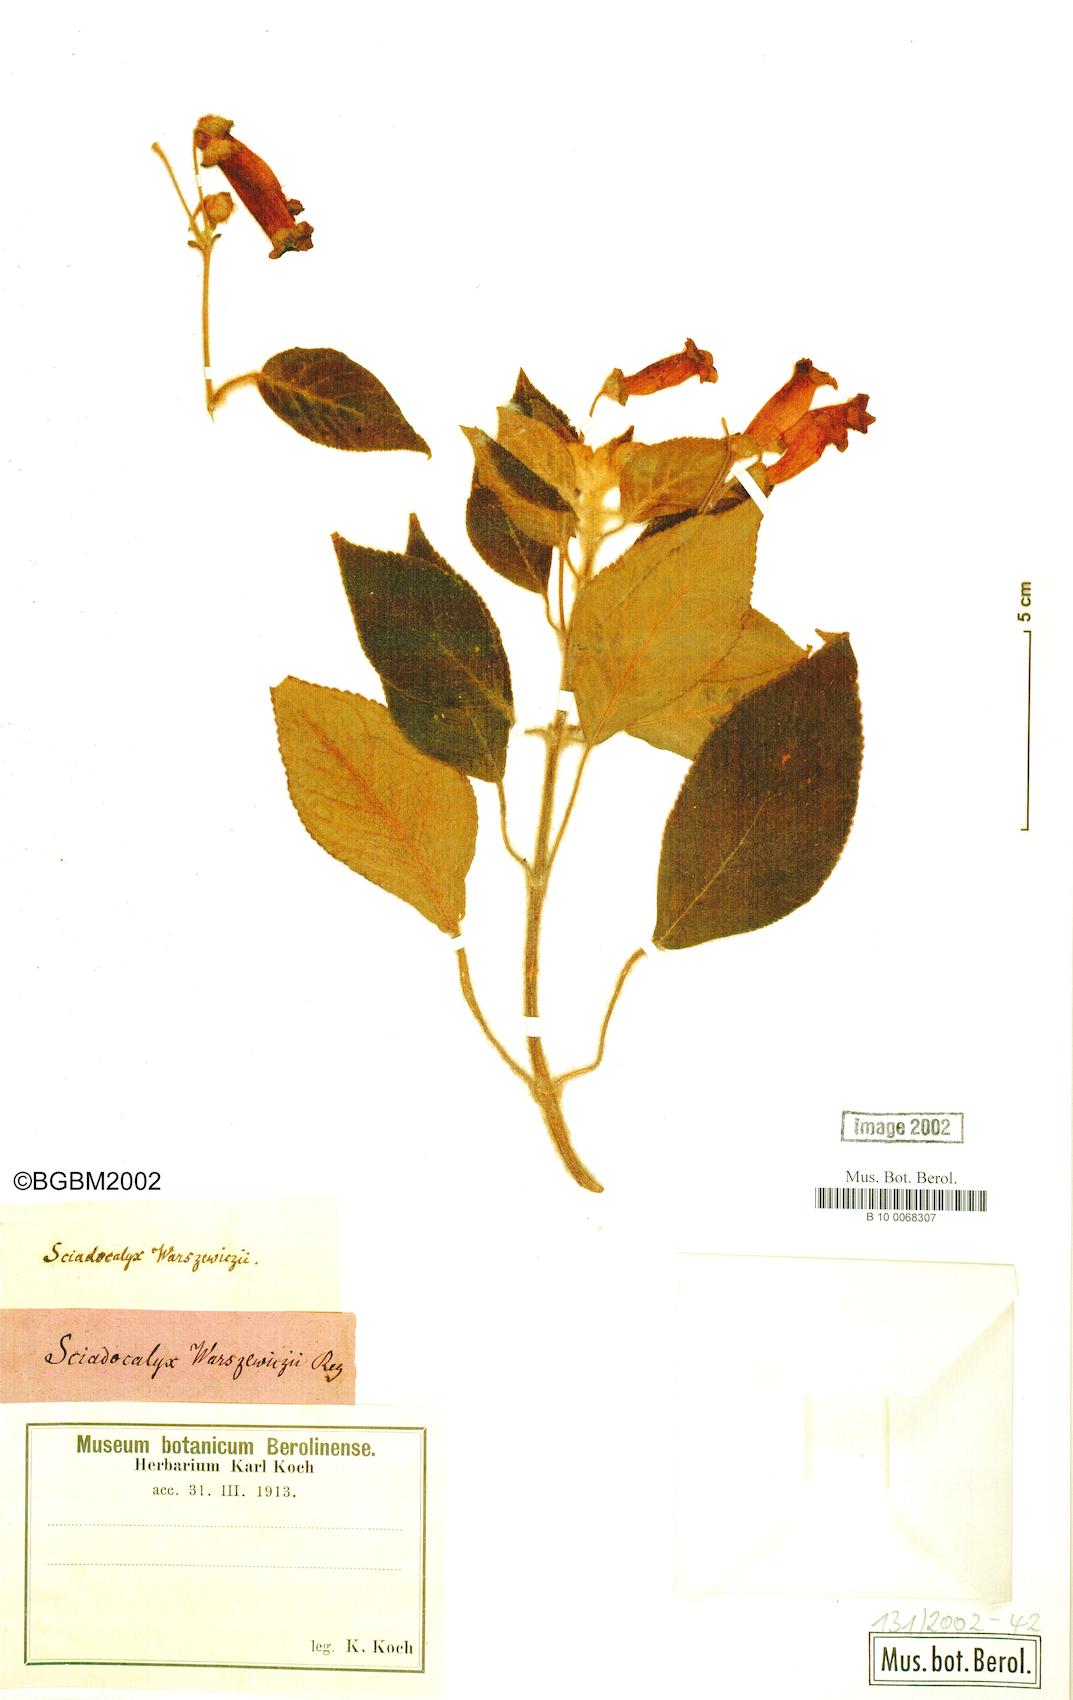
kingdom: Plantae
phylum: Tracheophyta
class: Magnoliopsida
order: Lamiales
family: Gesneriaceae
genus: Kohleria
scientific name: Kohleria warszewiczii
